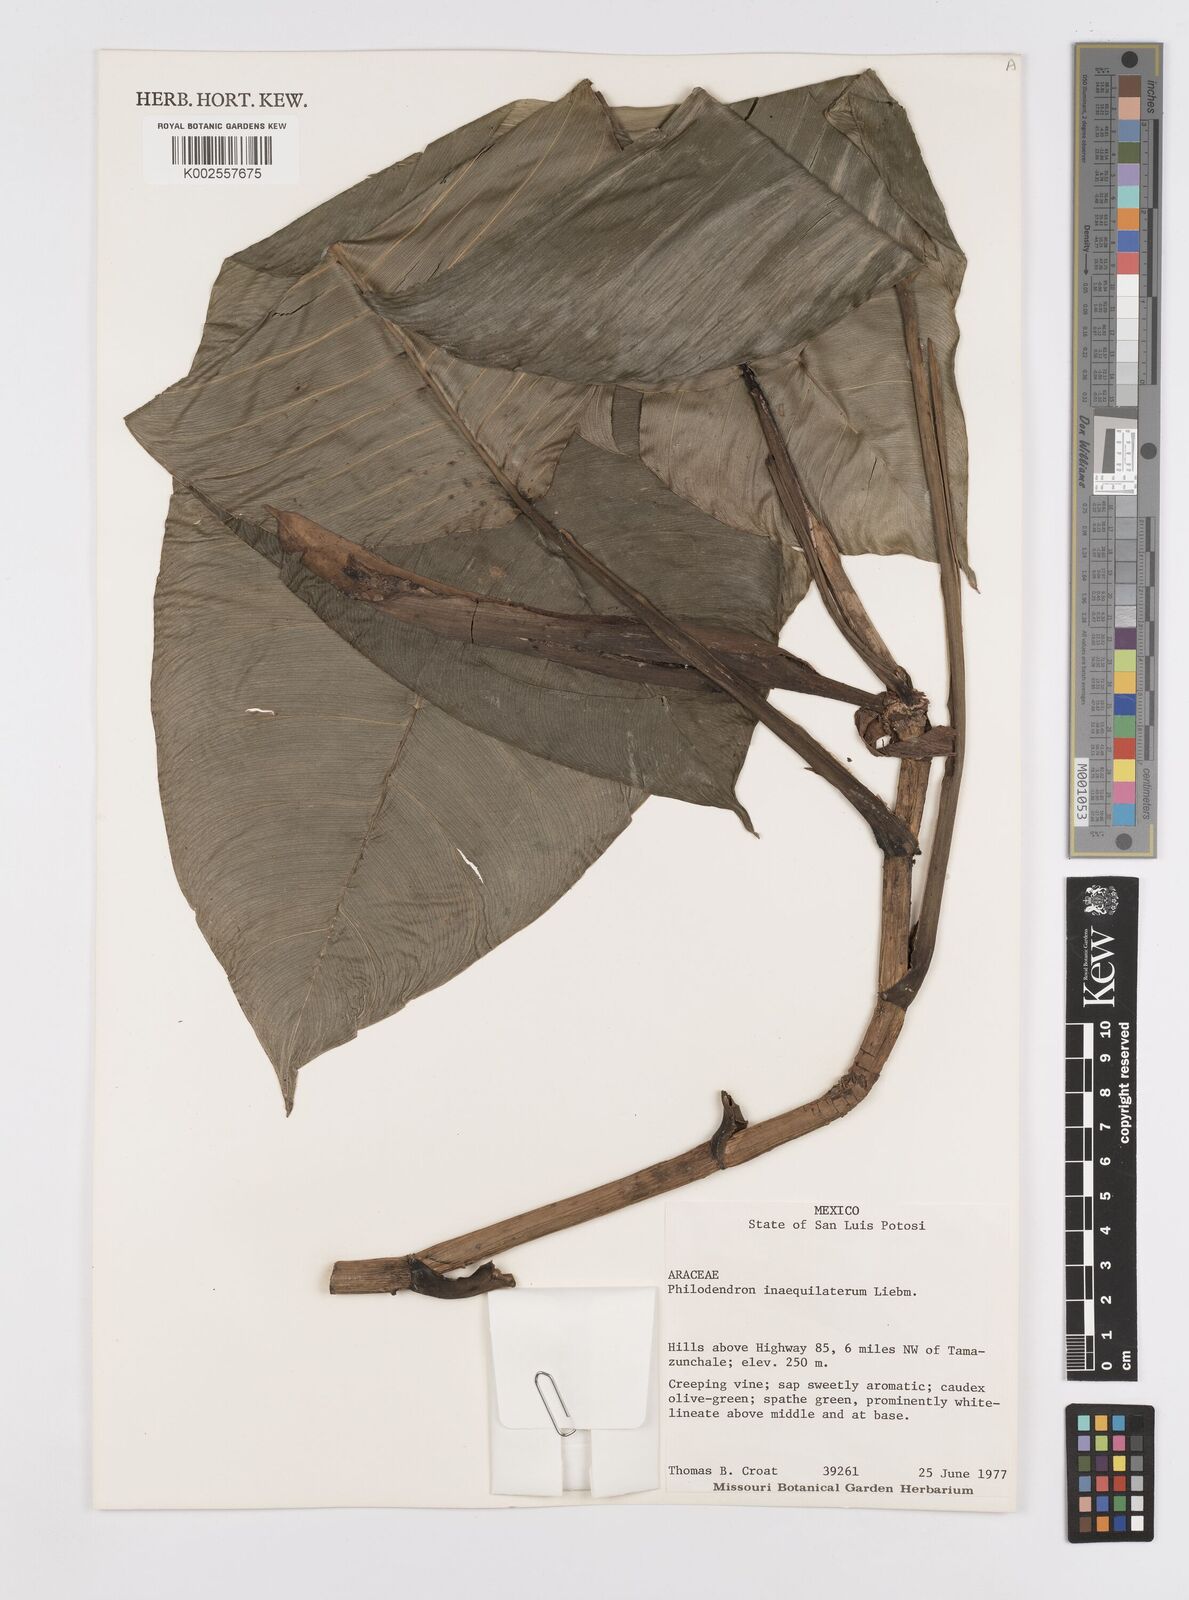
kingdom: Plantae
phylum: Tracheophyta
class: Liliopsida
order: Alismatales
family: Araceae
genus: Philodendron
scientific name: Philodendron inaequilaterum
